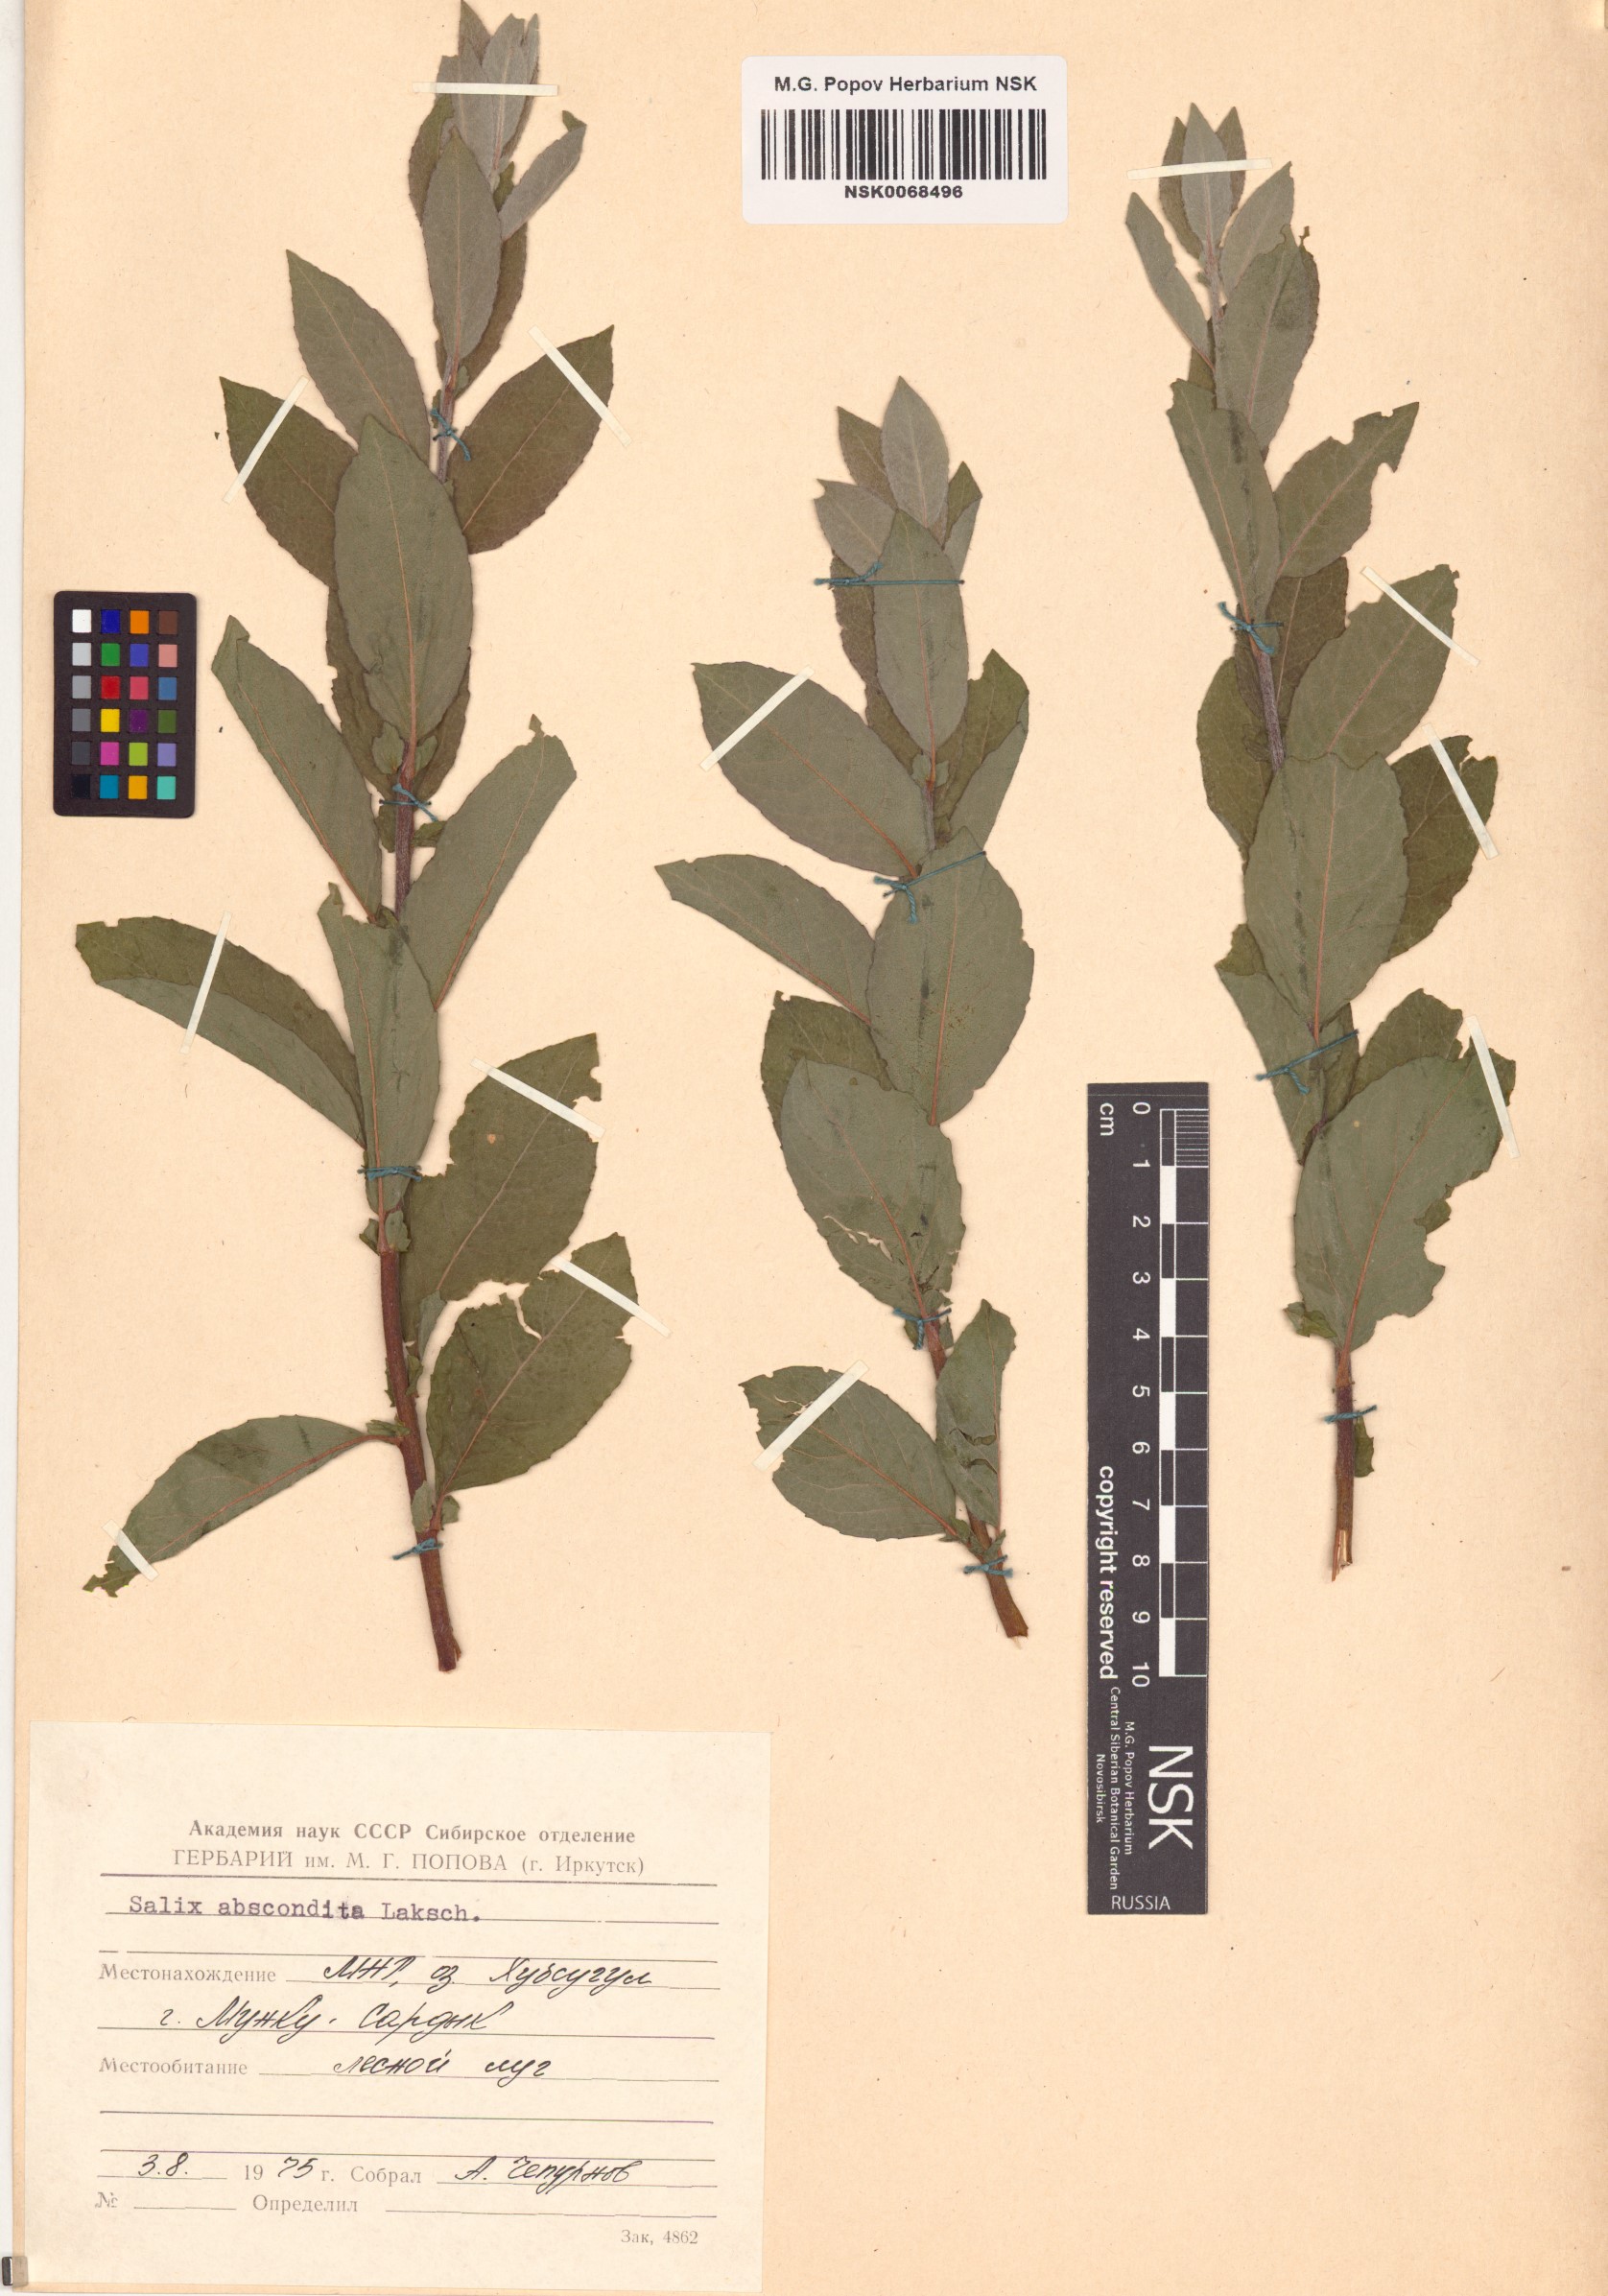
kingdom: Plantae
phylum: Tracheophyta
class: Magnoliopsida
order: Malpighiales
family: Salicaceae
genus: Salix
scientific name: Salix abscondita
